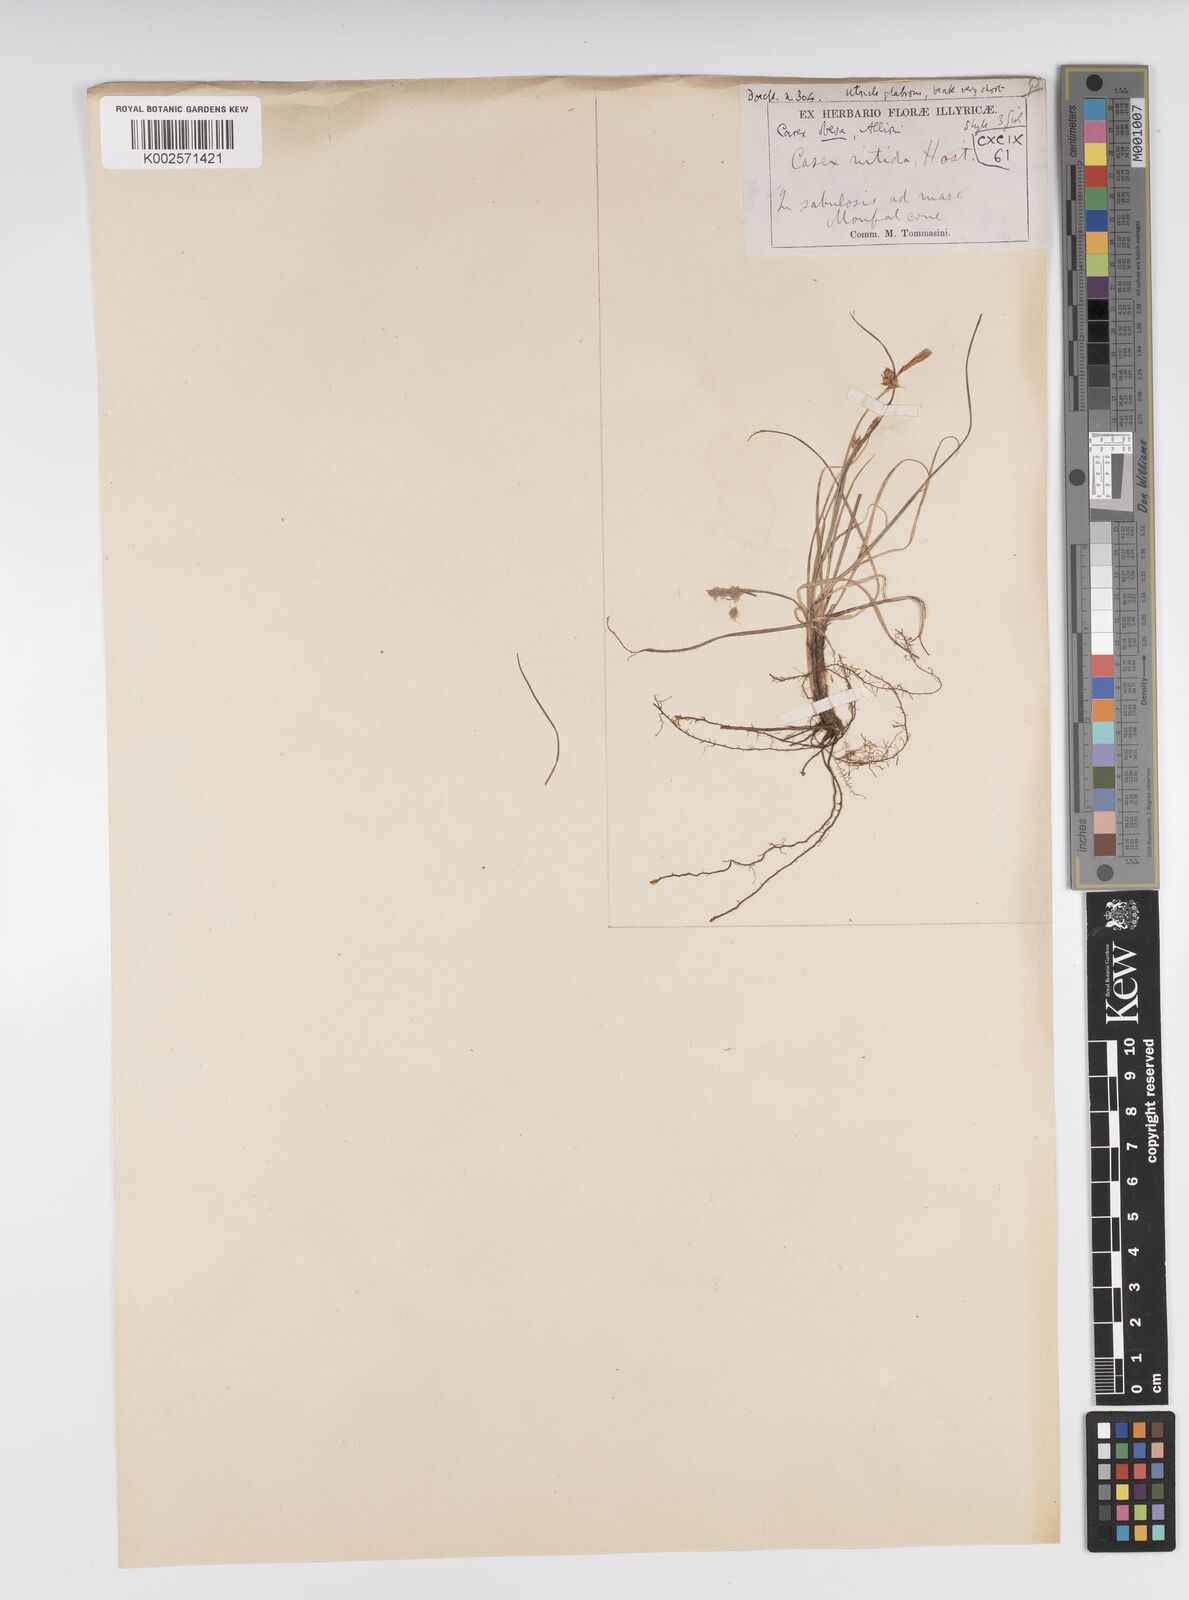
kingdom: Plantae
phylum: Tracheophyta
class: Liliopsida
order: Poales
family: Cyperaceae
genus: Carex
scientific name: Carex liparocarpos
